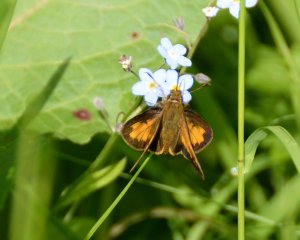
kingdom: Animalia
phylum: Arthropoda
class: Insecta
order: Lepidoptera
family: Hesperiidae
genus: Polites
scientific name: Polites coras
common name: Peck's Skipper
